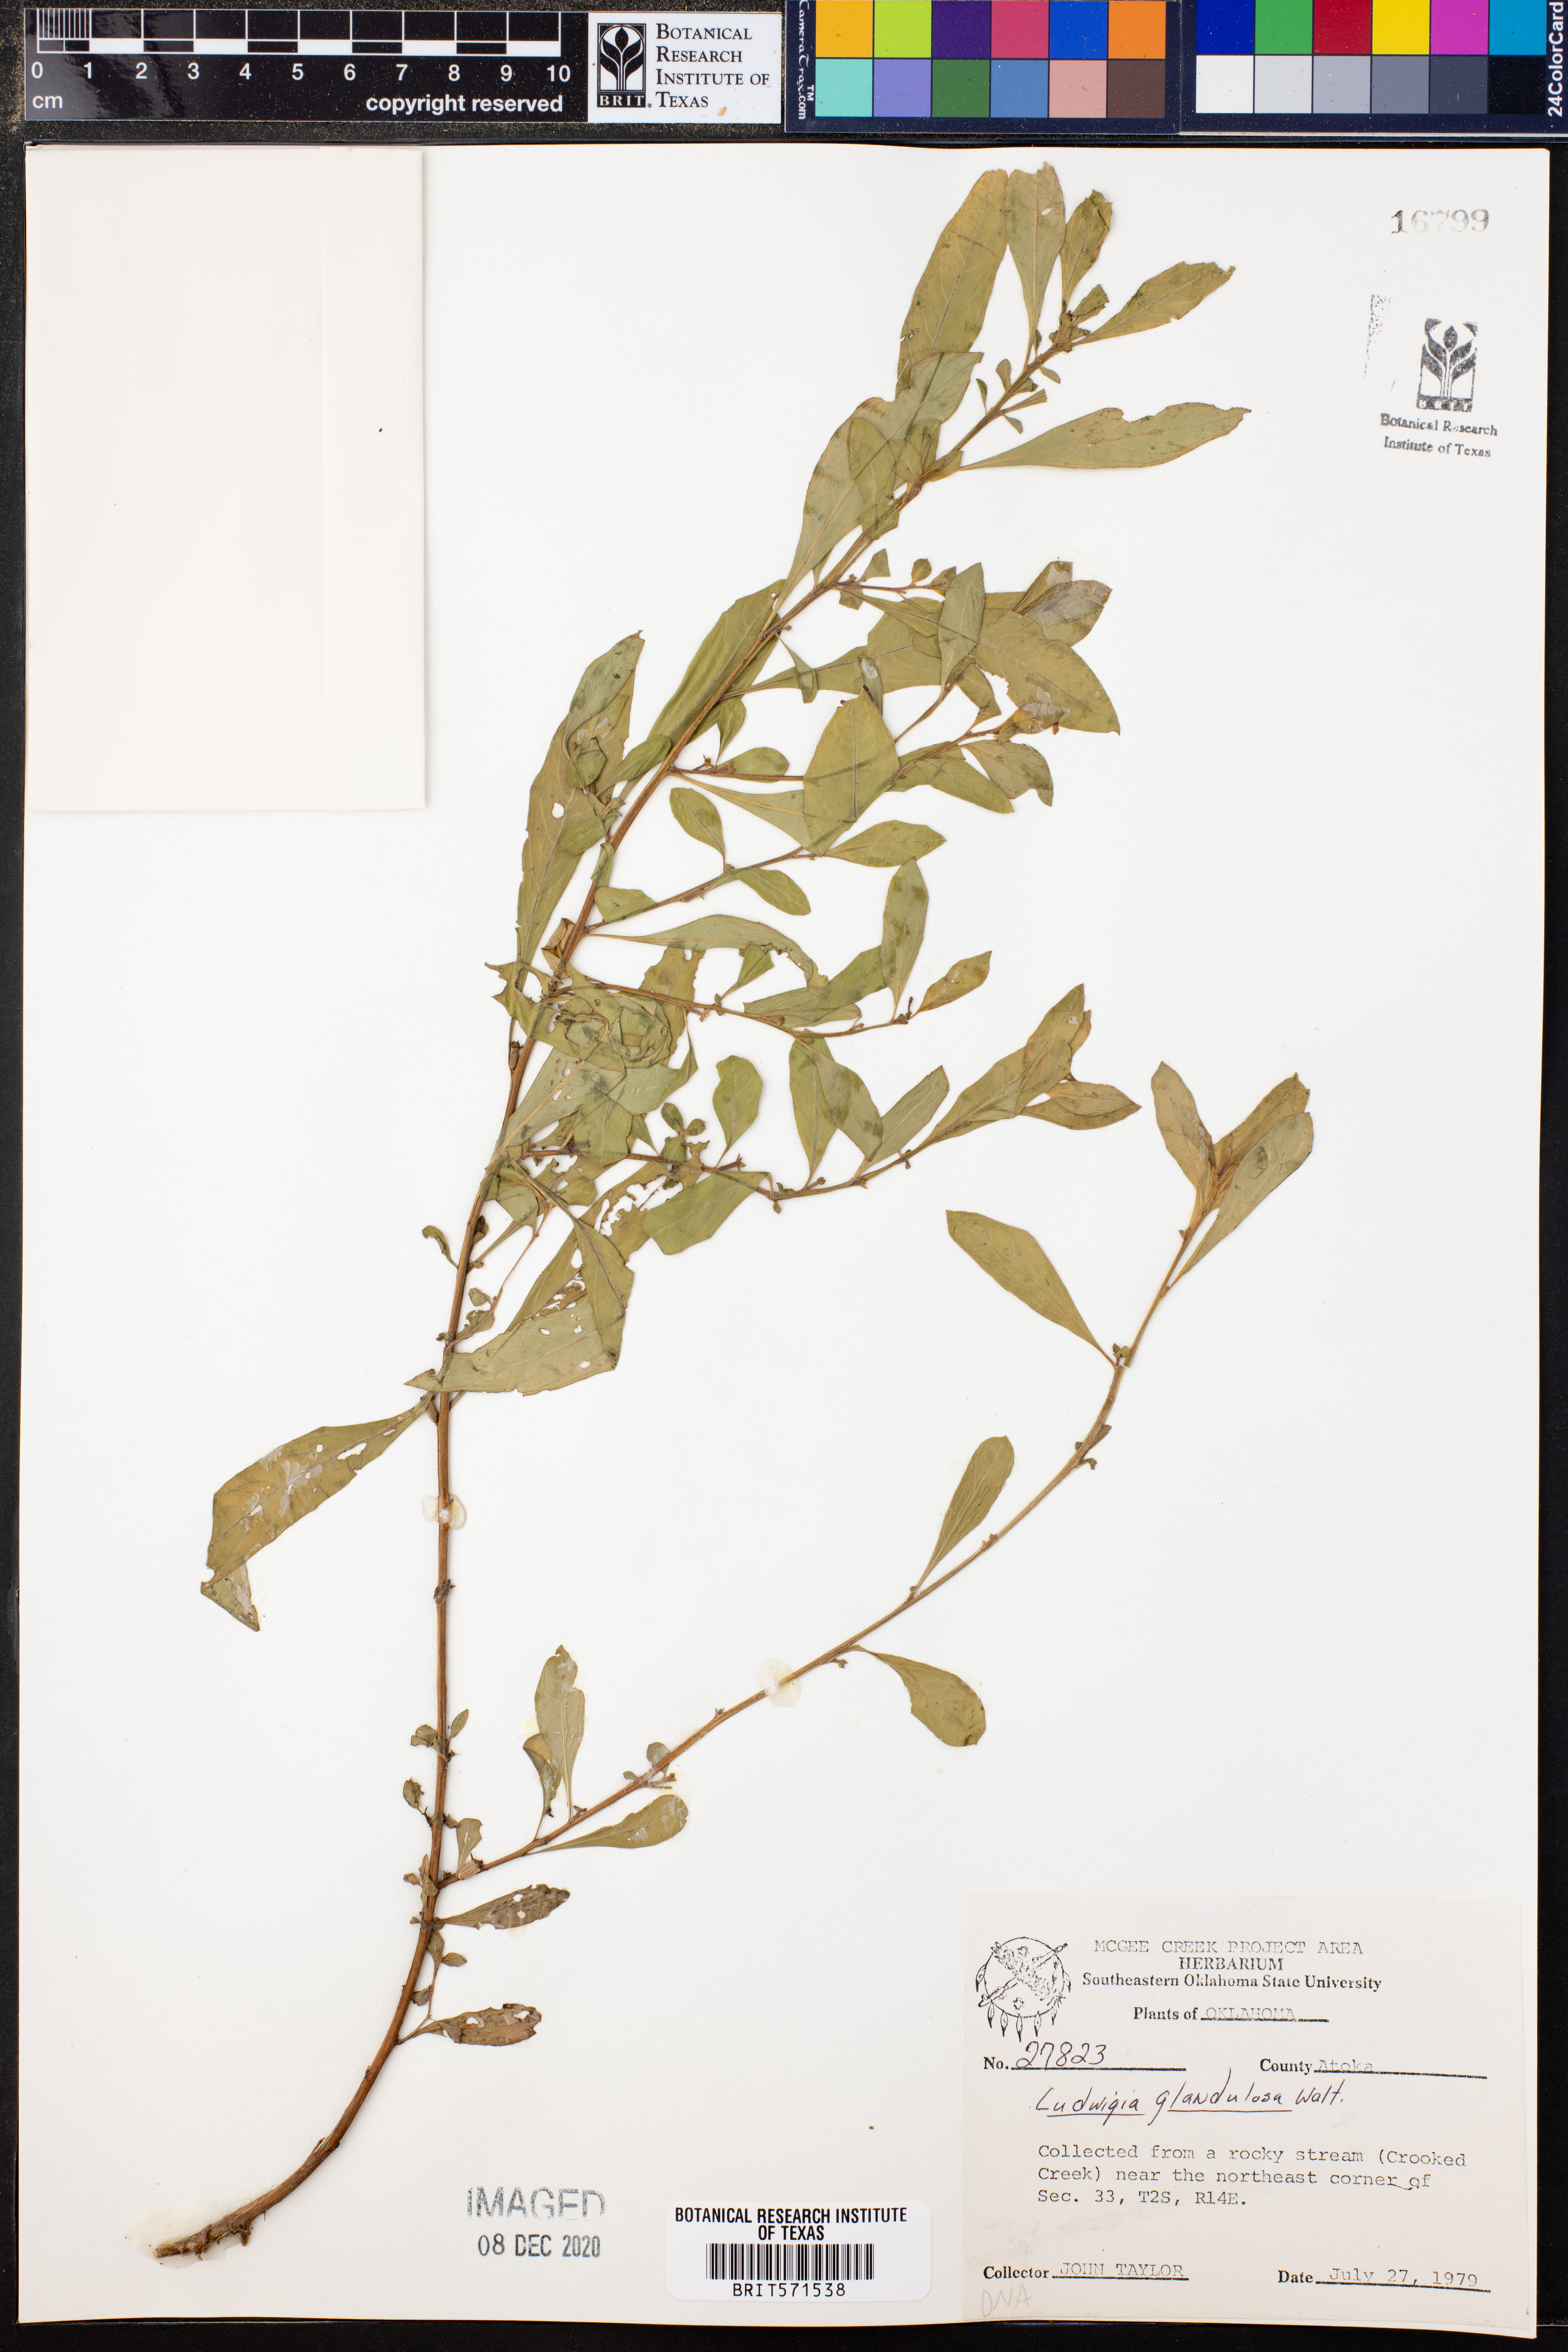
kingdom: Plantae
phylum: Tracheophyta
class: Magnoliopsida
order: Myrtales
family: Onagraceae
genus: Ludwigia
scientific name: Ludwigia glandulosa
